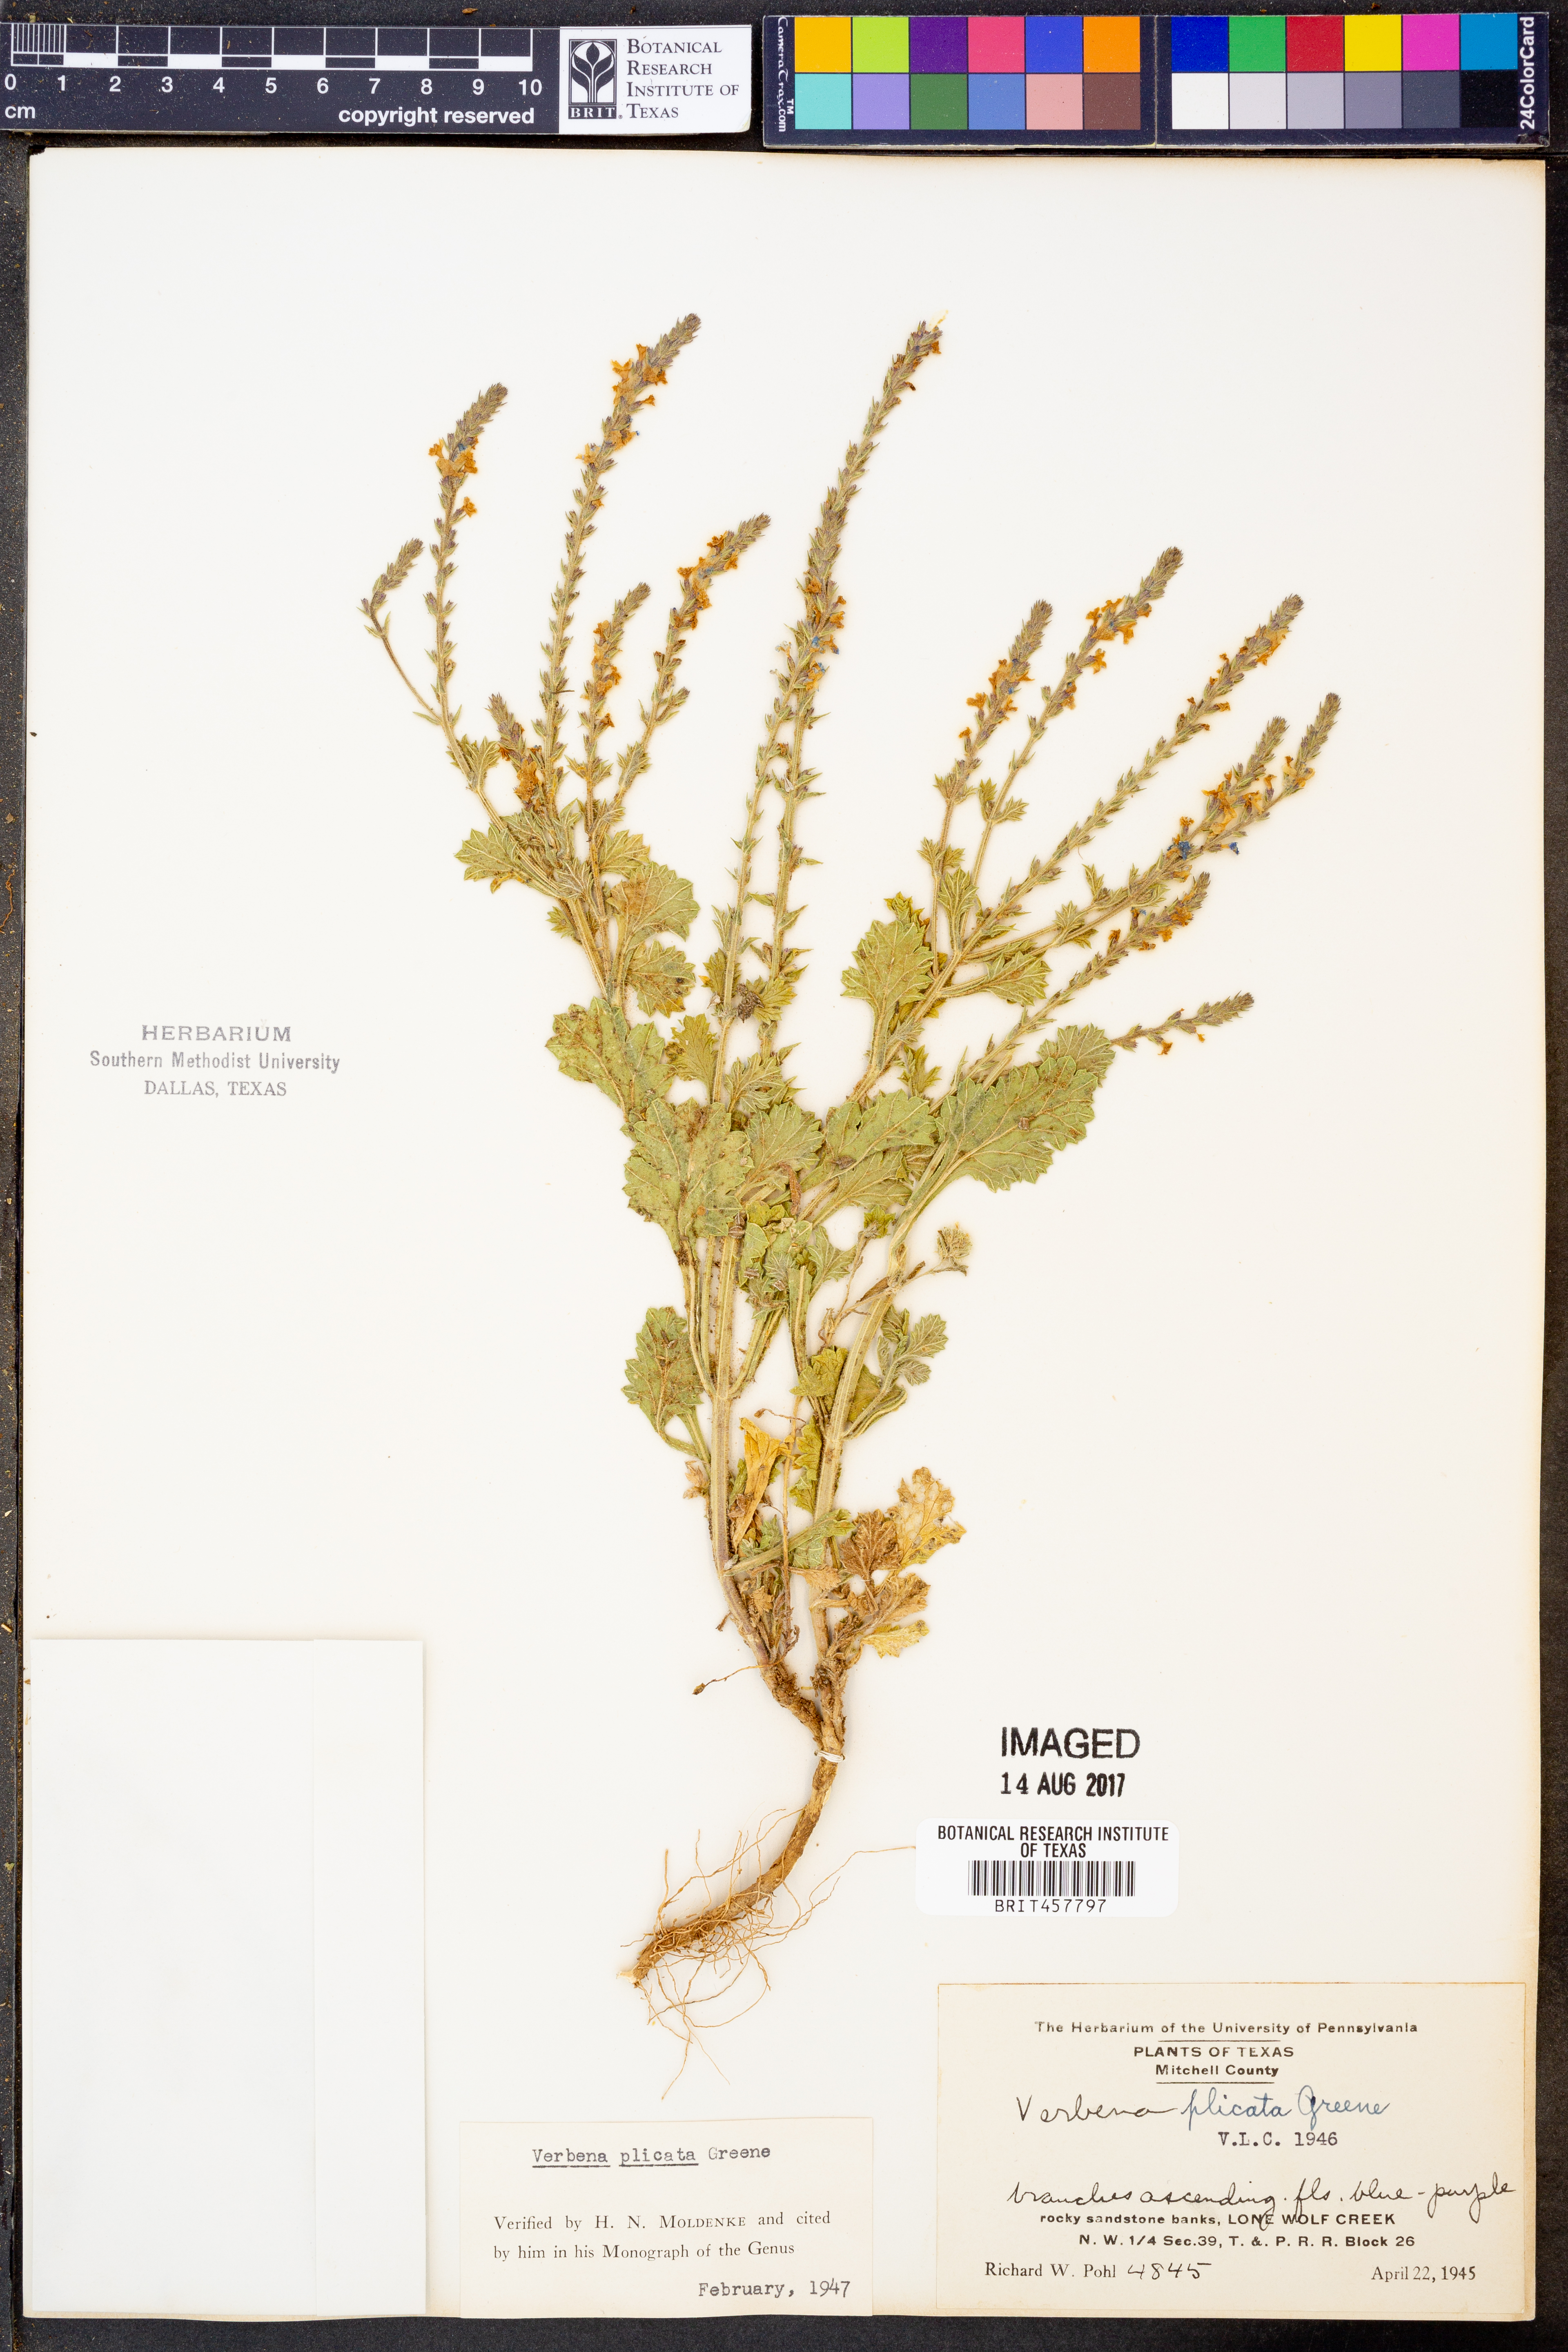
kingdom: Plantae
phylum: Tracheophyta
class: Magnoliopsida
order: Lamiales
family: Verbenaceae
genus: Verbena
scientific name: Verbena plicata
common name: Fan-leaf vervain
